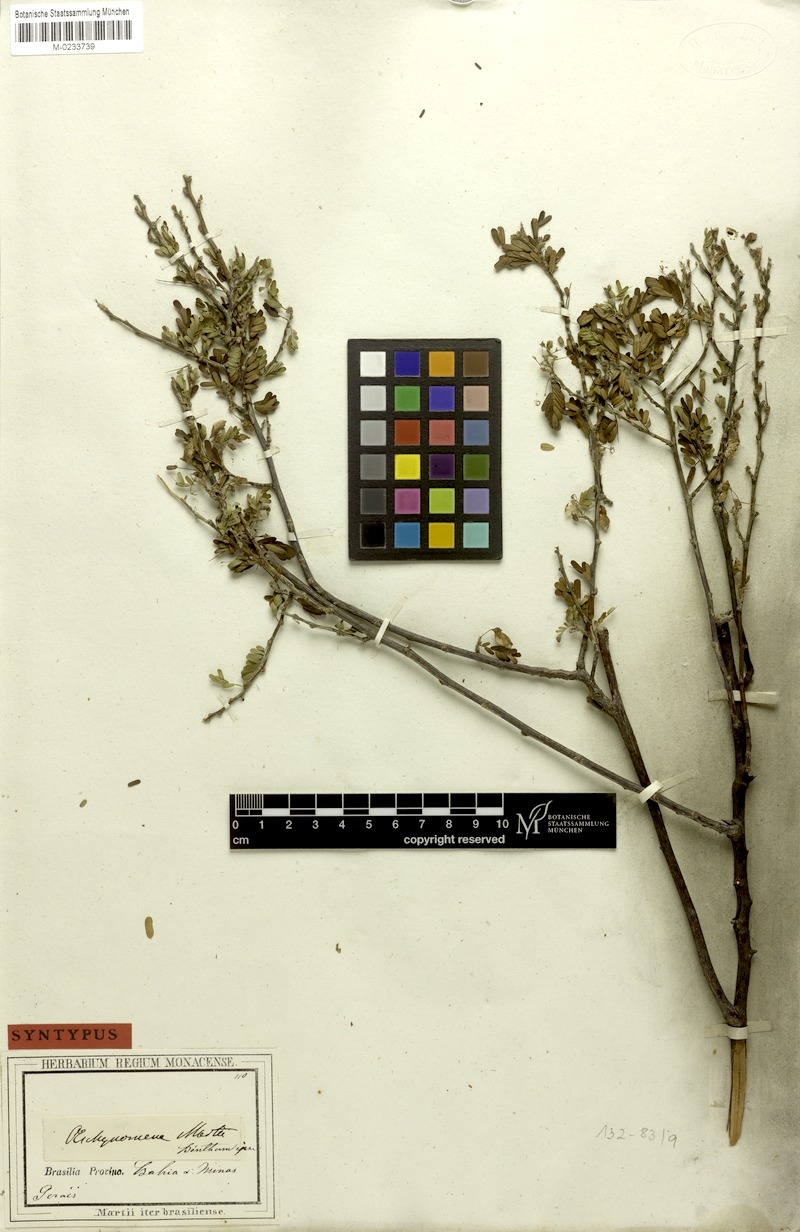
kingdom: Plantae
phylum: Tracheophyta
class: Magnoliopsida
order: Fabales
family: Fabaceae
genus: Ctenodon
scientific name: Ctenodon martii
